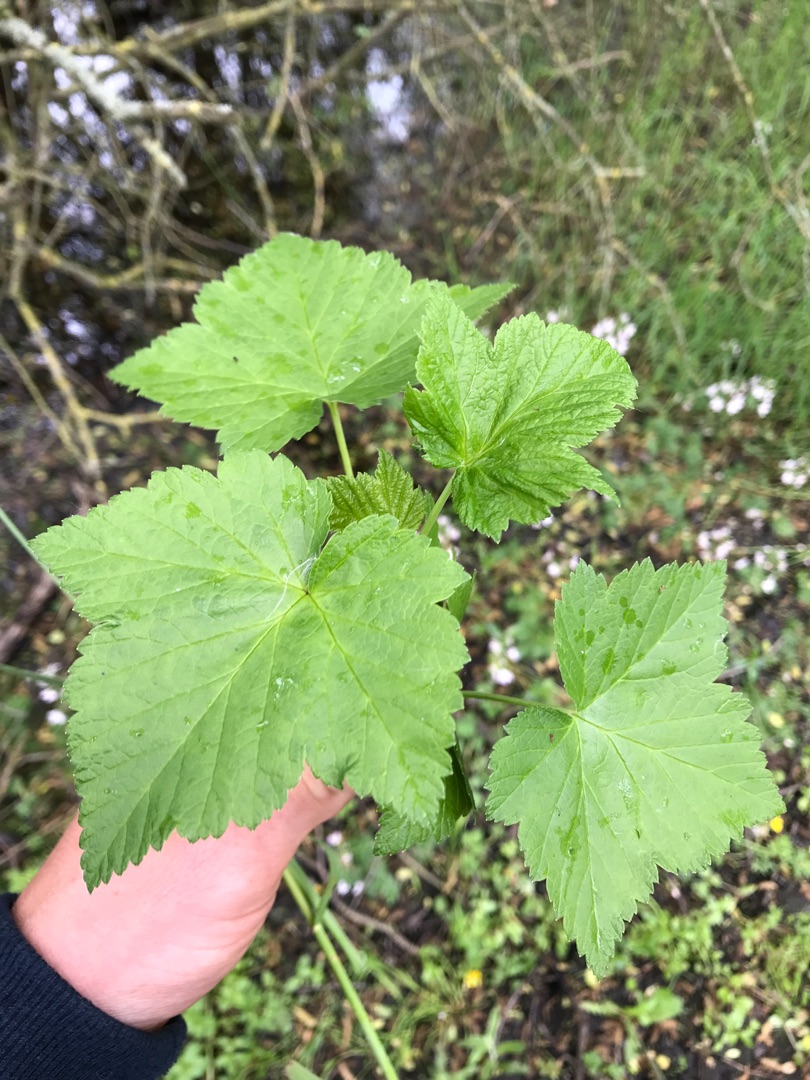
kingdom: Plantae
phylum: Tracheophyta
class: Magnoliopsida
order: Saxifragales
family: Grossulariaceae
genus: Ribes
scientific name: Ribes nigrum
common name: Solbær
